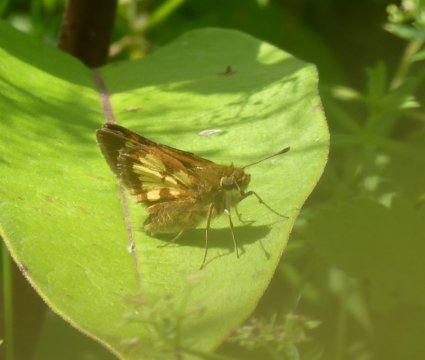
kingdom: Animalia
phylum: Arthropoda
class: Insecta
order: Lepidoptera
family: Hesperiidae
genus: Polites
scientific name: Polites coras
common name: Peck's Skipper
